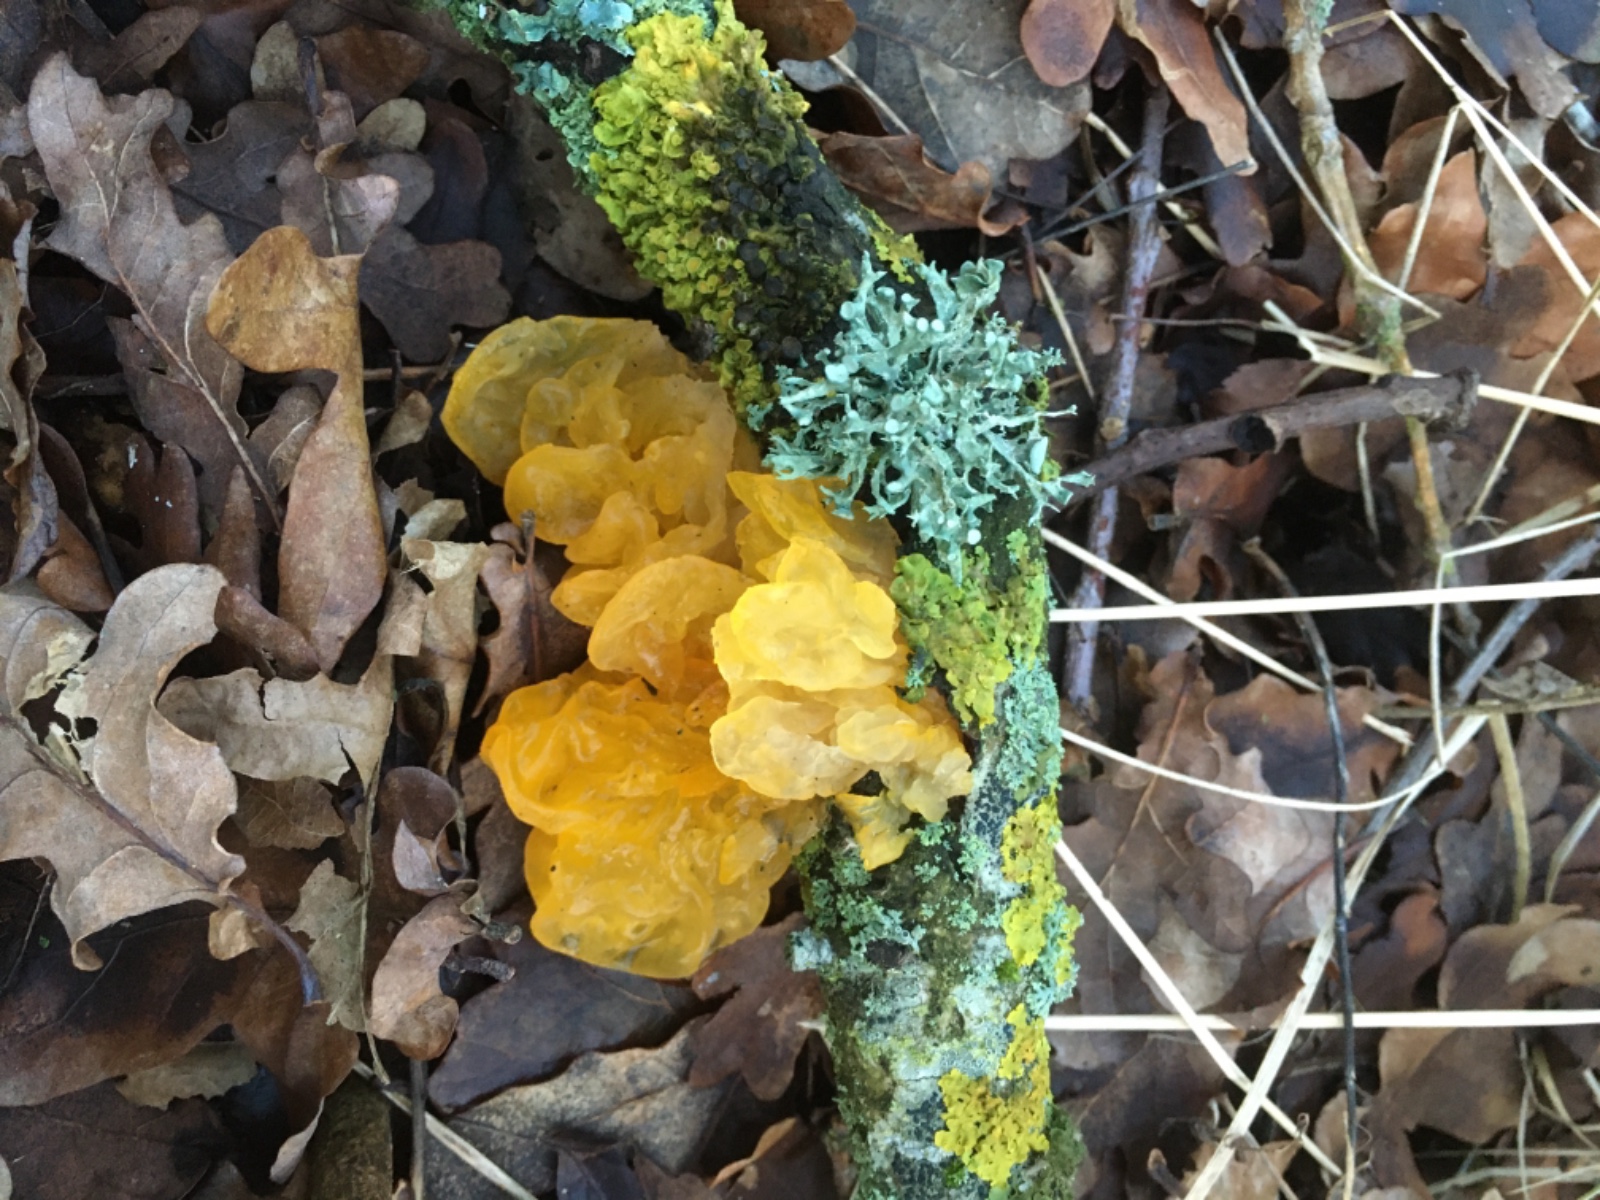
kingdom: Fungi
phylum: Basidiomycota
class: Tremellomycetes
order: Tremellales
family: Tremellaceae
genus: Tremella
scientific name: Tremella mesenterica
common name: gul bævresvamp
